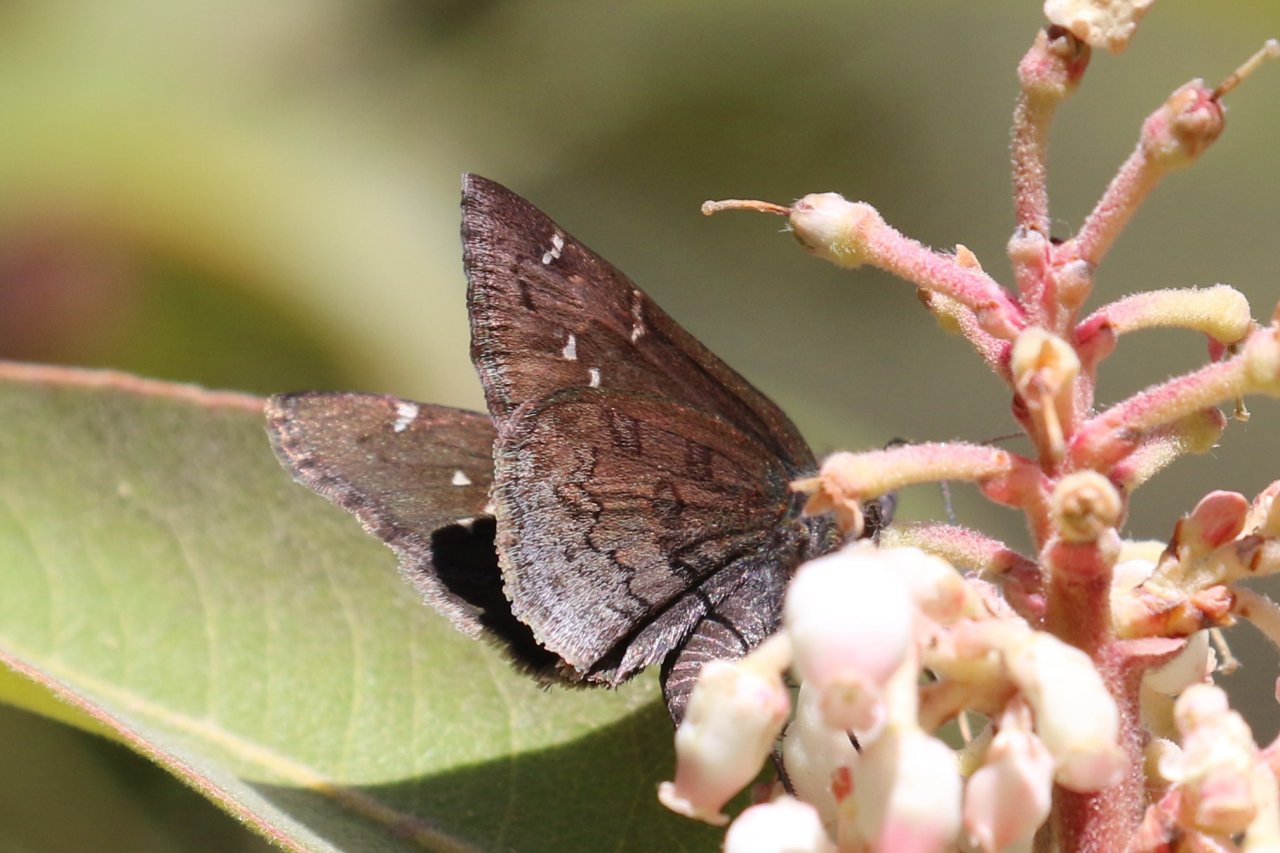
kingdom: Animalia
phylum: Arthropoda
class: Insecta
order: Lepidoptera
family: Hesperiidae
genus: Autochton
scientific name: Autochton
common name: Northern Cloudywing
